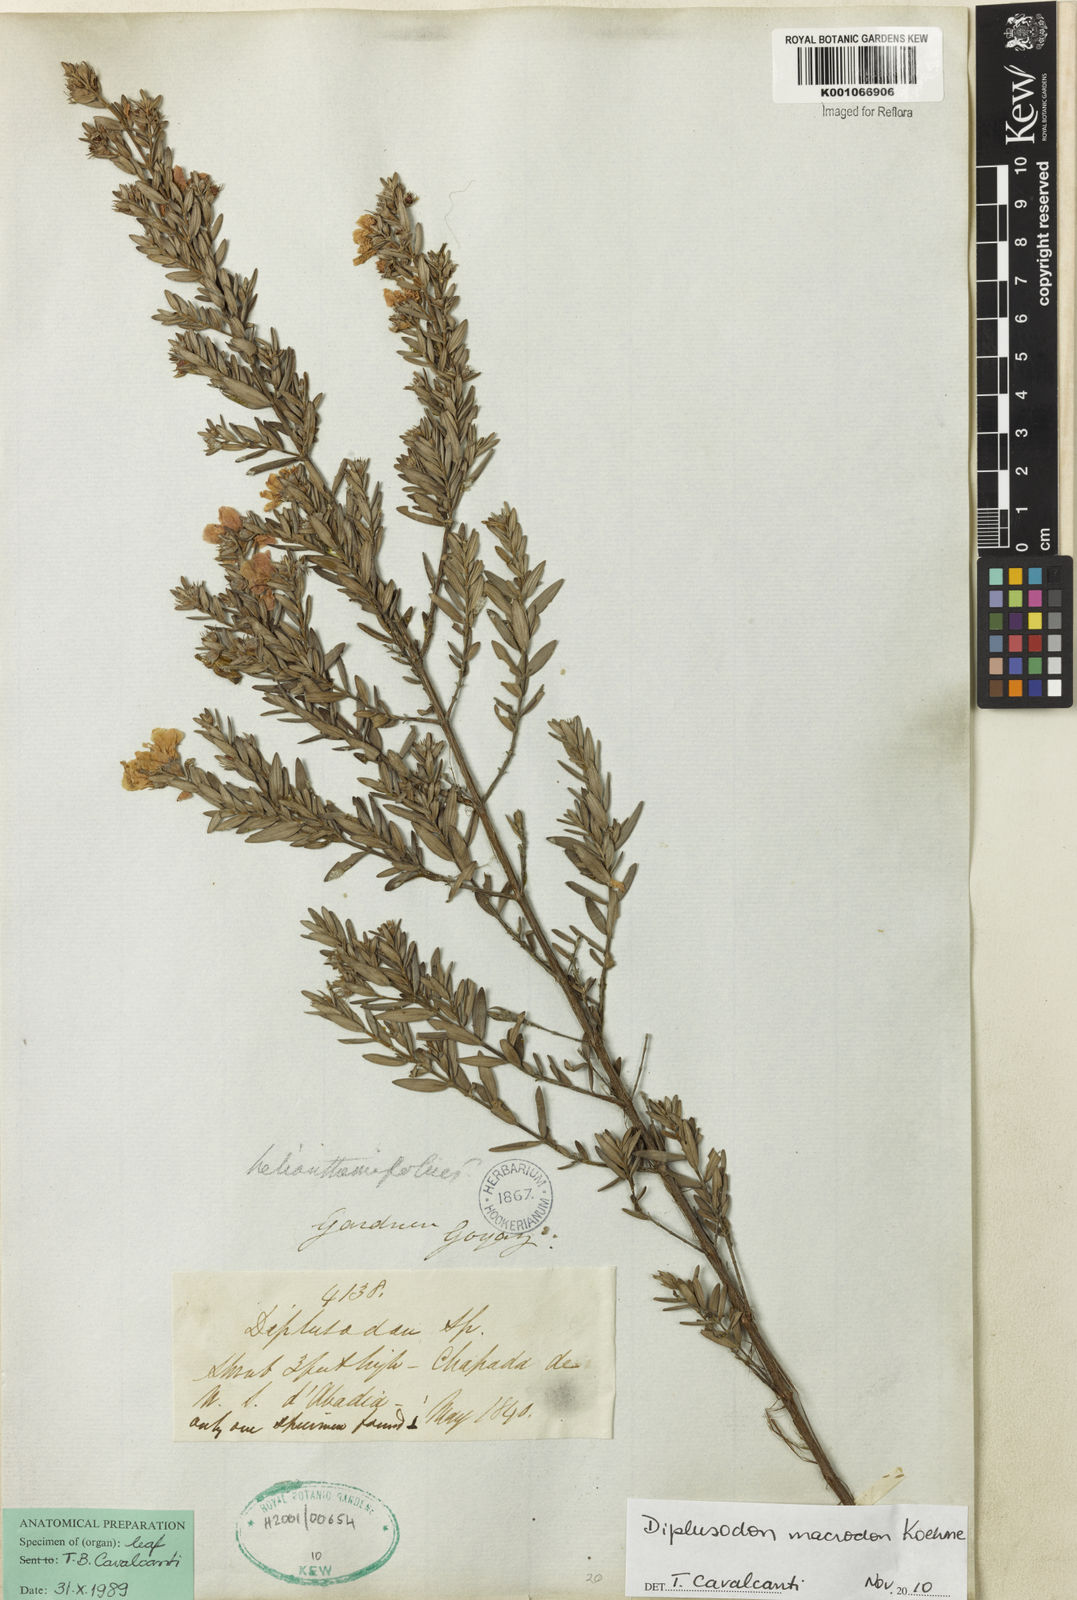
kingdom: Plantae
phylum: Tracheophyta
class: Magnoliopsida
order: Myrtales
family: Lythraceae
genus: Diplusodon
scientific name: Diplusodon macrodon
